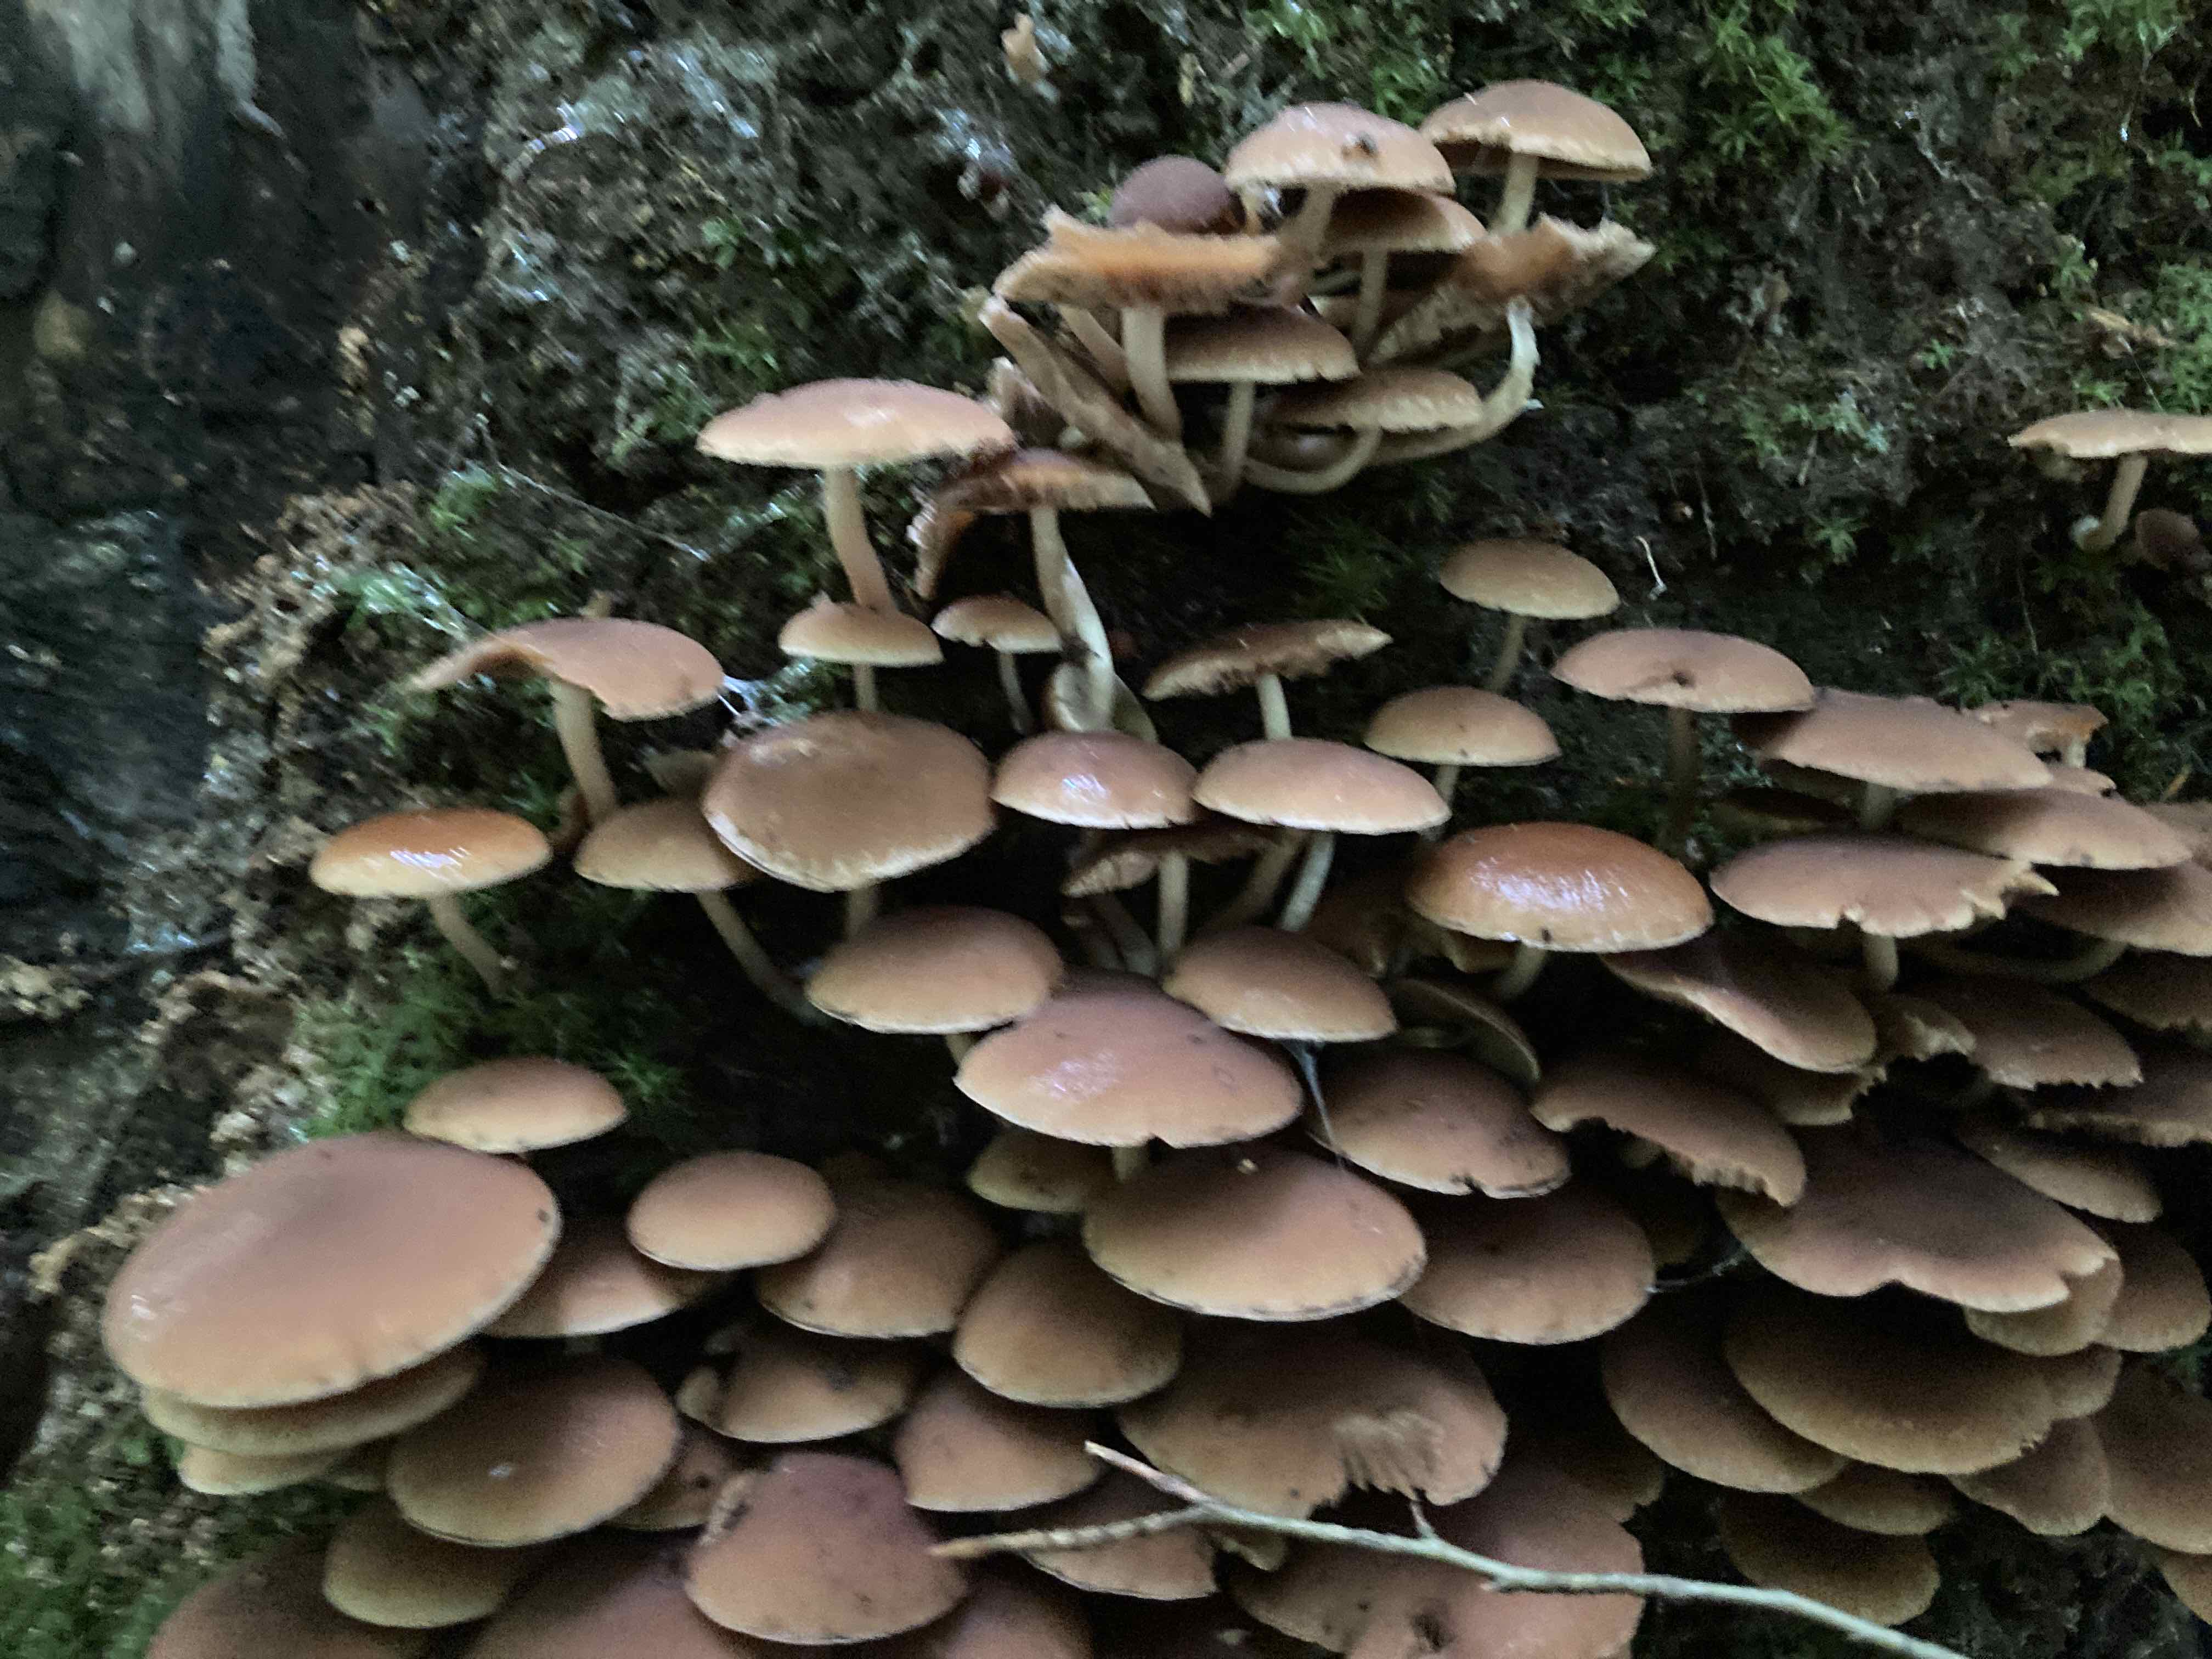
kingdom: Fungi
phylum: Basidiomycota
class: Agaricomycetes
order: Agaricales
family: Psathyrellaceae
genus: Psathyrella
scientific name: Psathyrella piluliformis
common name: lysstokket mørkhat
